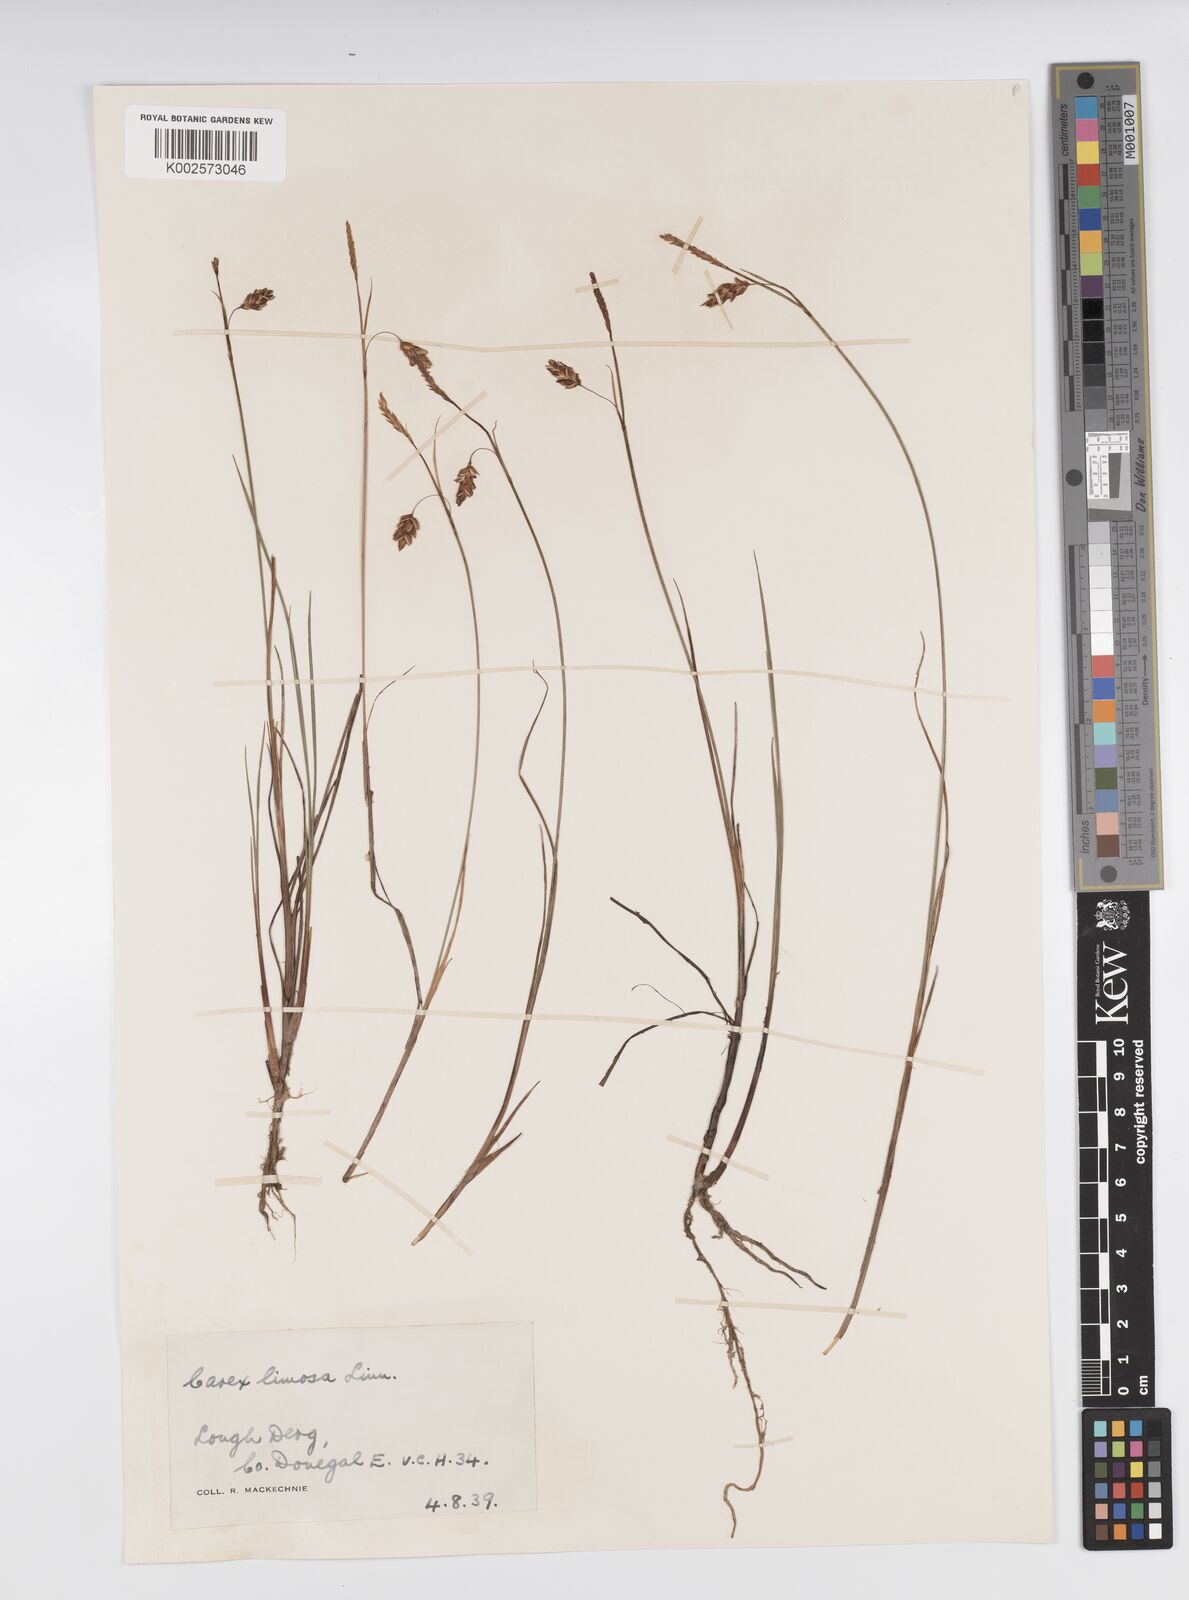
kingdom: Plantae
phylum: Tracheophyta
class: Liliopsida
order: Poales
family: Cyperaceae
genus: Carex
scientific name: Carex limosa
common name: Bog sedge
